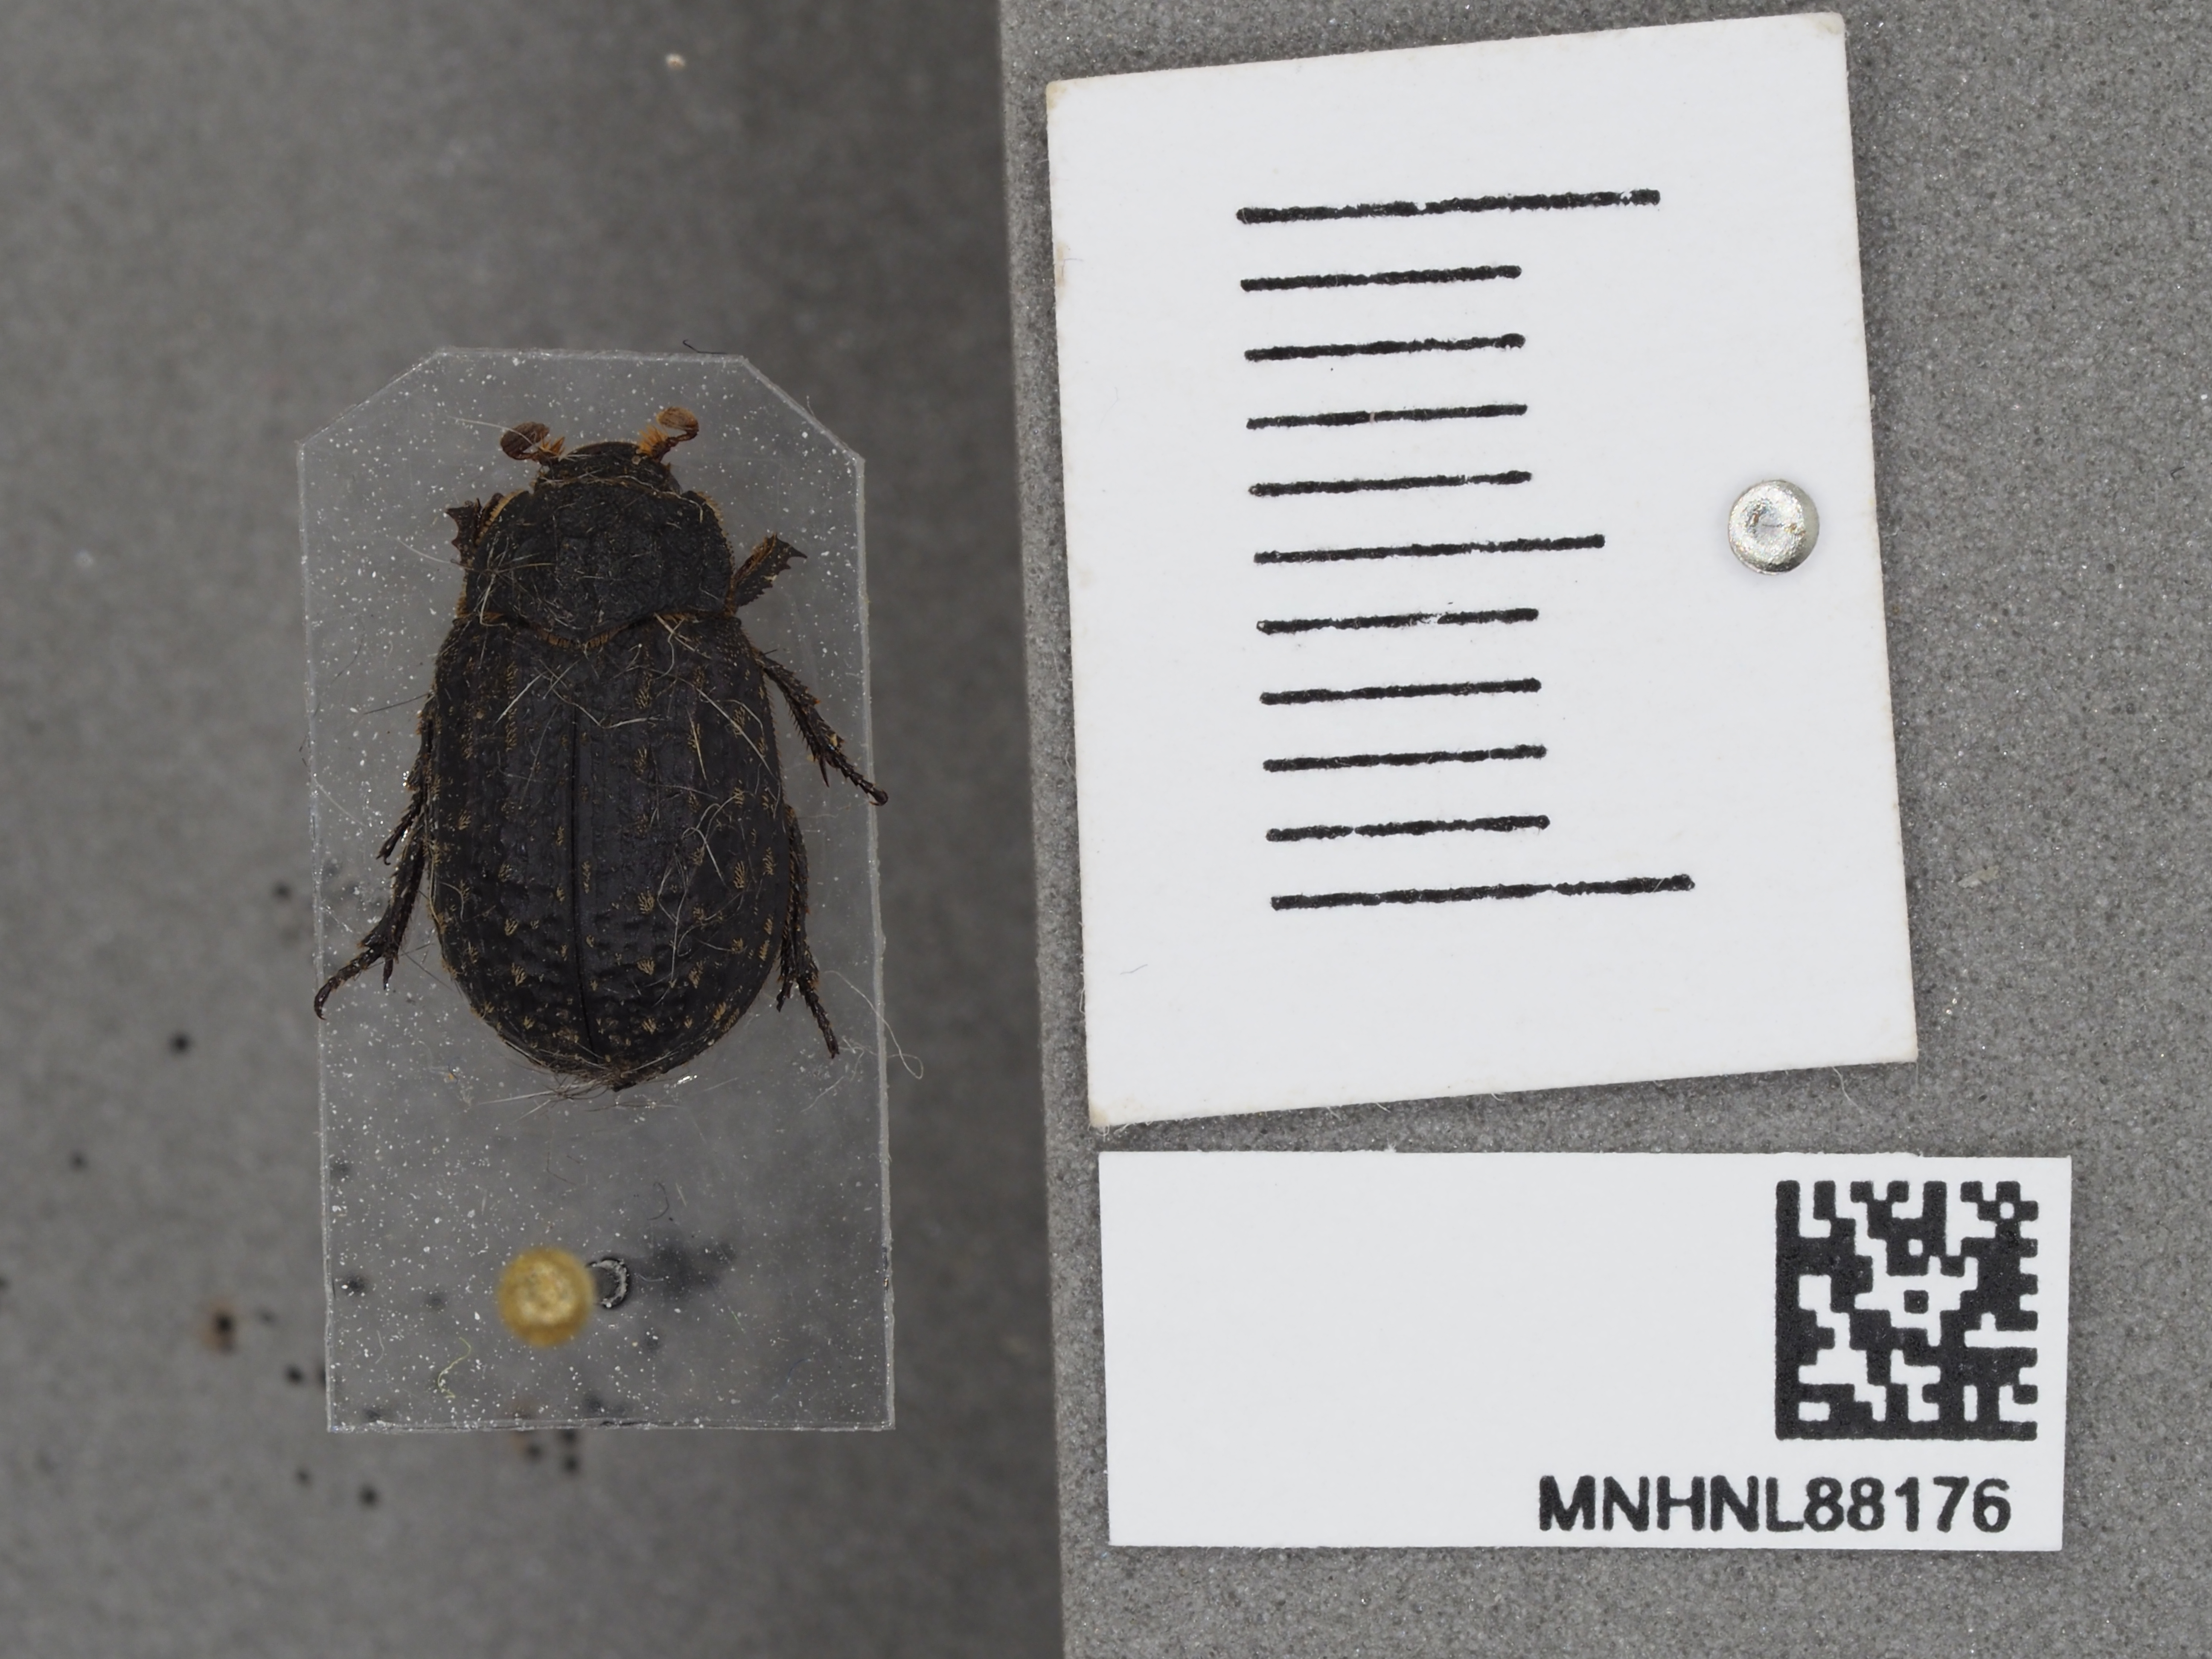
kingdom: Animalia
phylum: Arthropoda
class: Insecta
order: Coleoptera
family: Trogidae
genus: Trox
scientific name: Trox scaber
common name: Hide beetle
